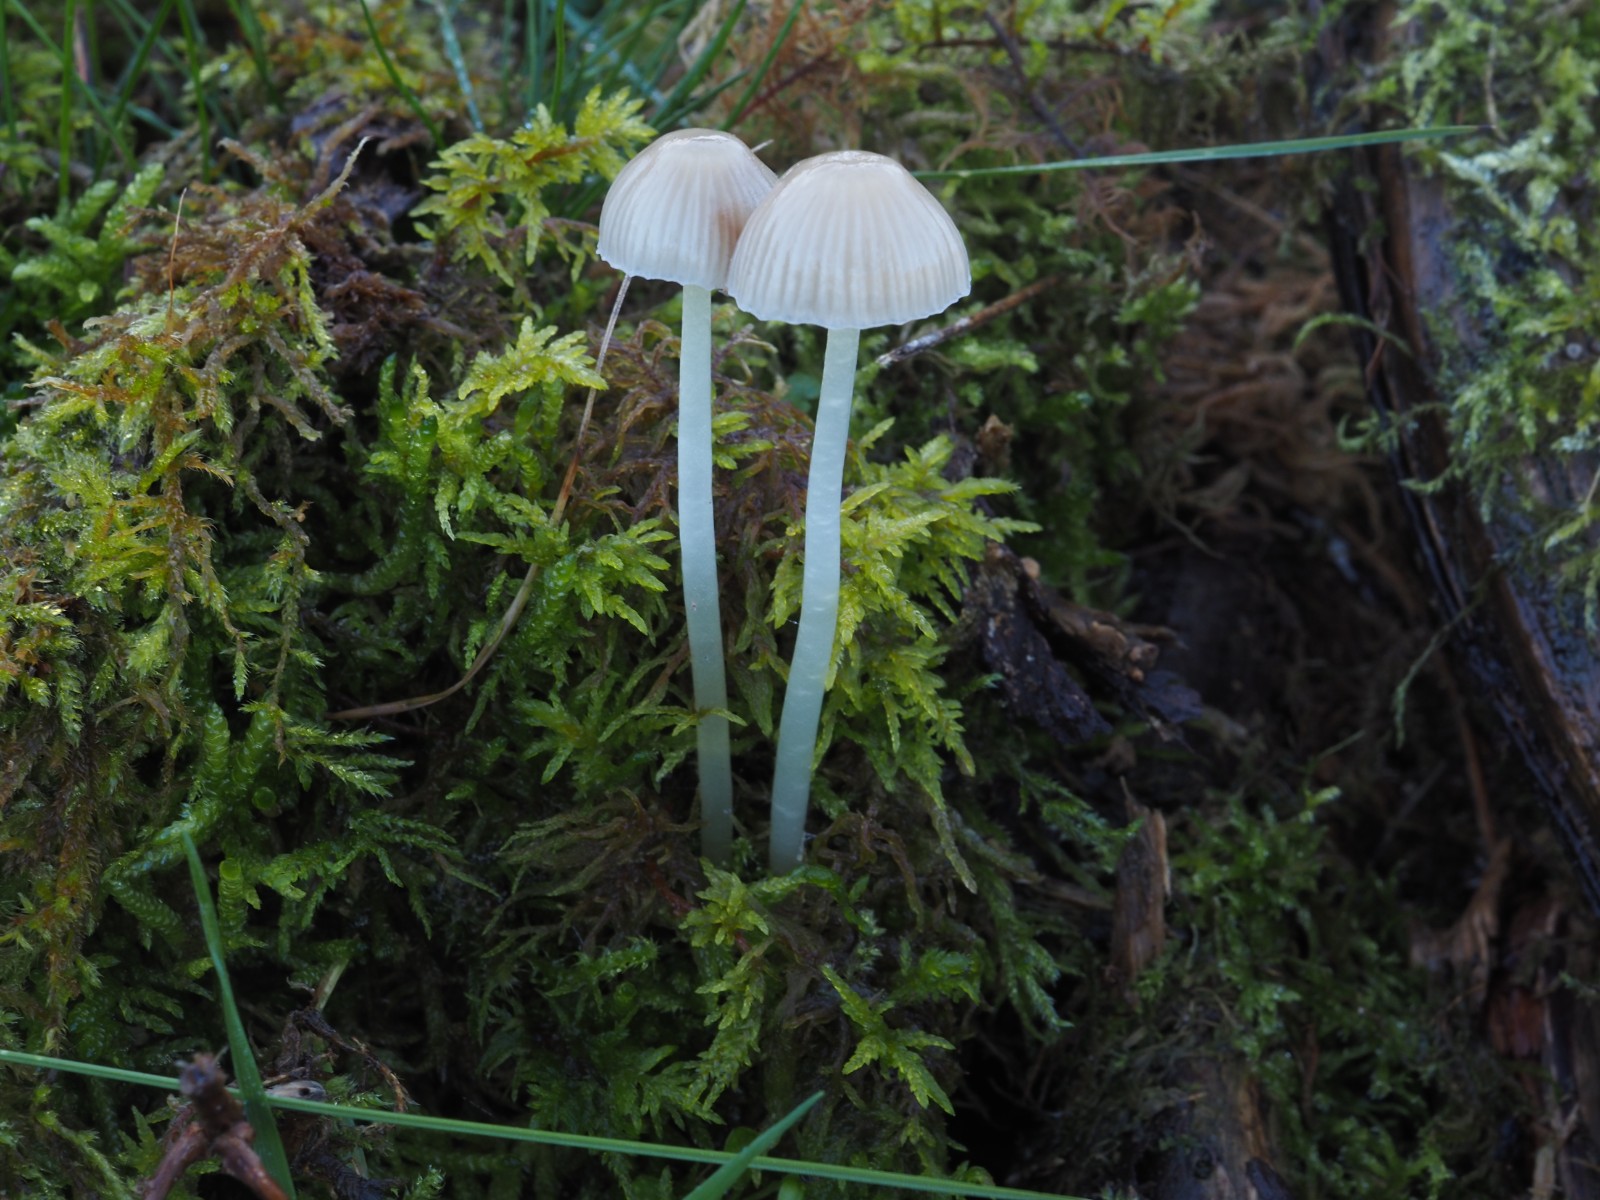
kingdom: Fungi
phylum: Basidiomycota
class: Agaricomycetes
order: Agaricales
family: Mycenaceae
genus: Mycena
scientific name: Mycena epipterygia
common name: gulstokket huesvamp
